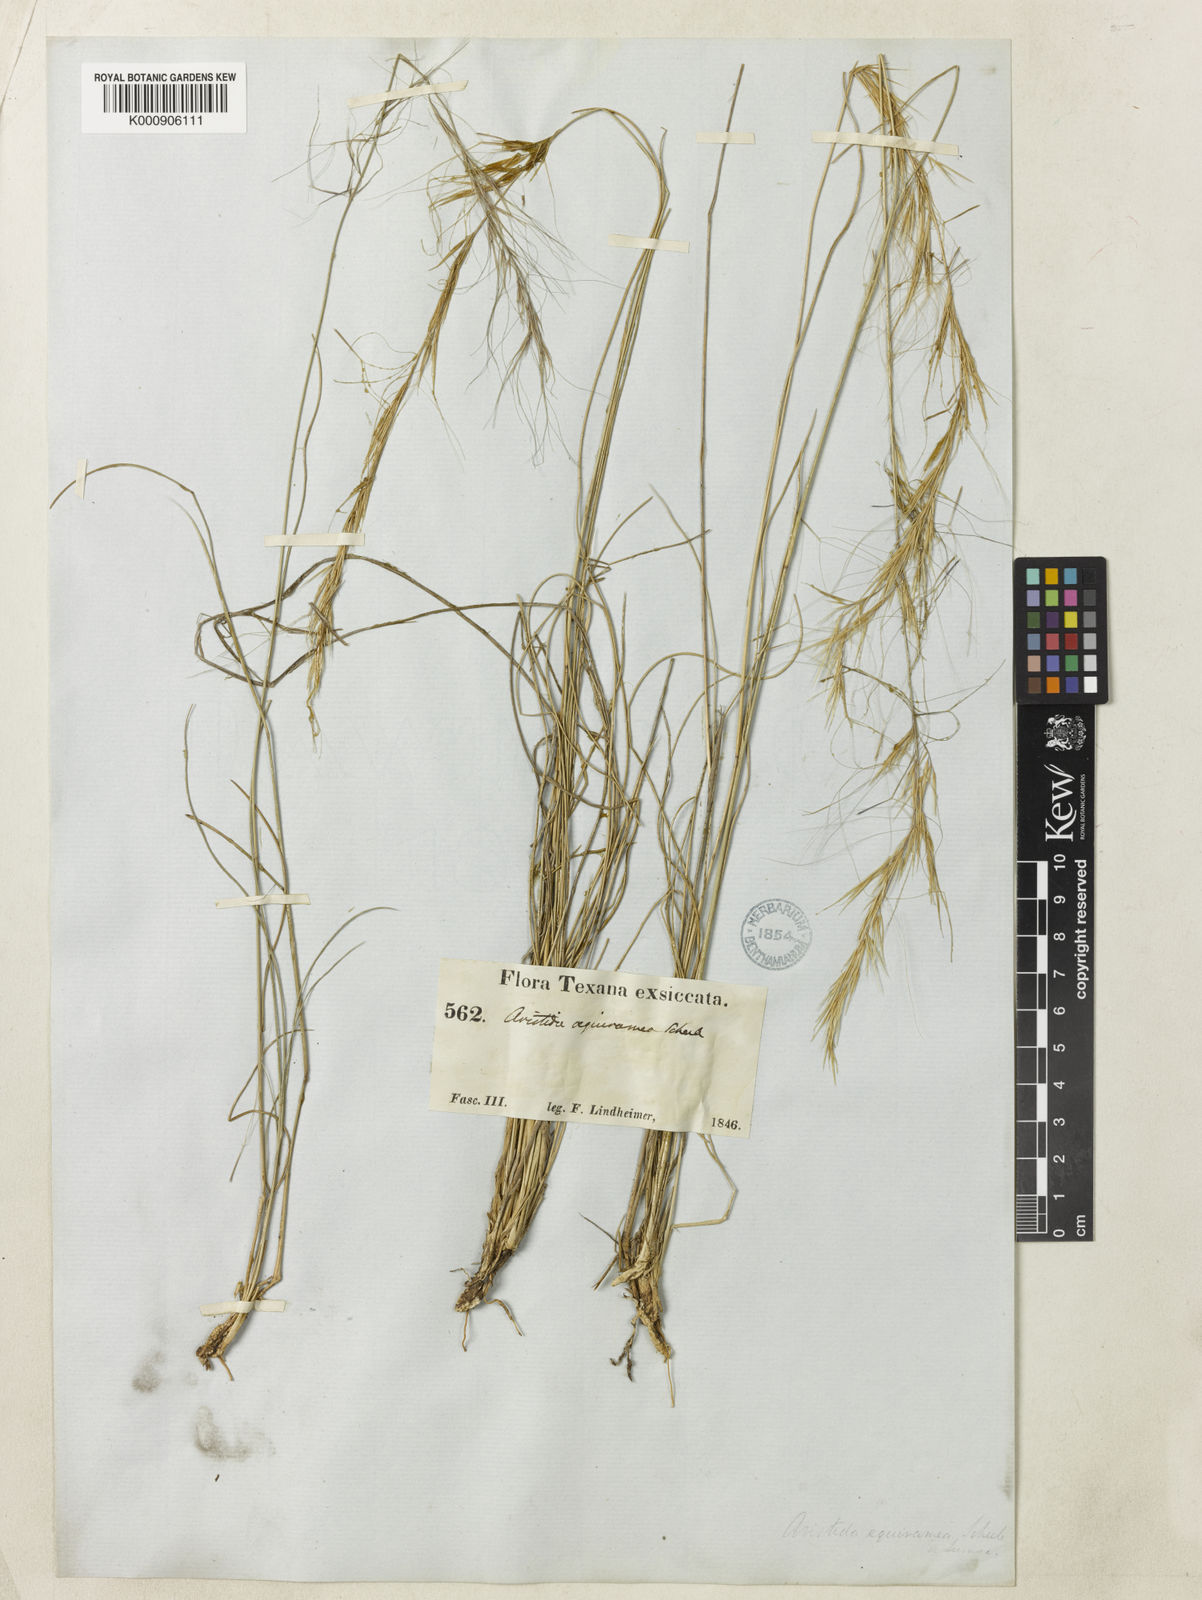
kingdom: Plantae
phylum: Tracheophyta
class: Liliopsida
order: Poales
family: Poaceae
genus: Aristida
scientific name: Aristida purpurea
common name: Purple threeawn
